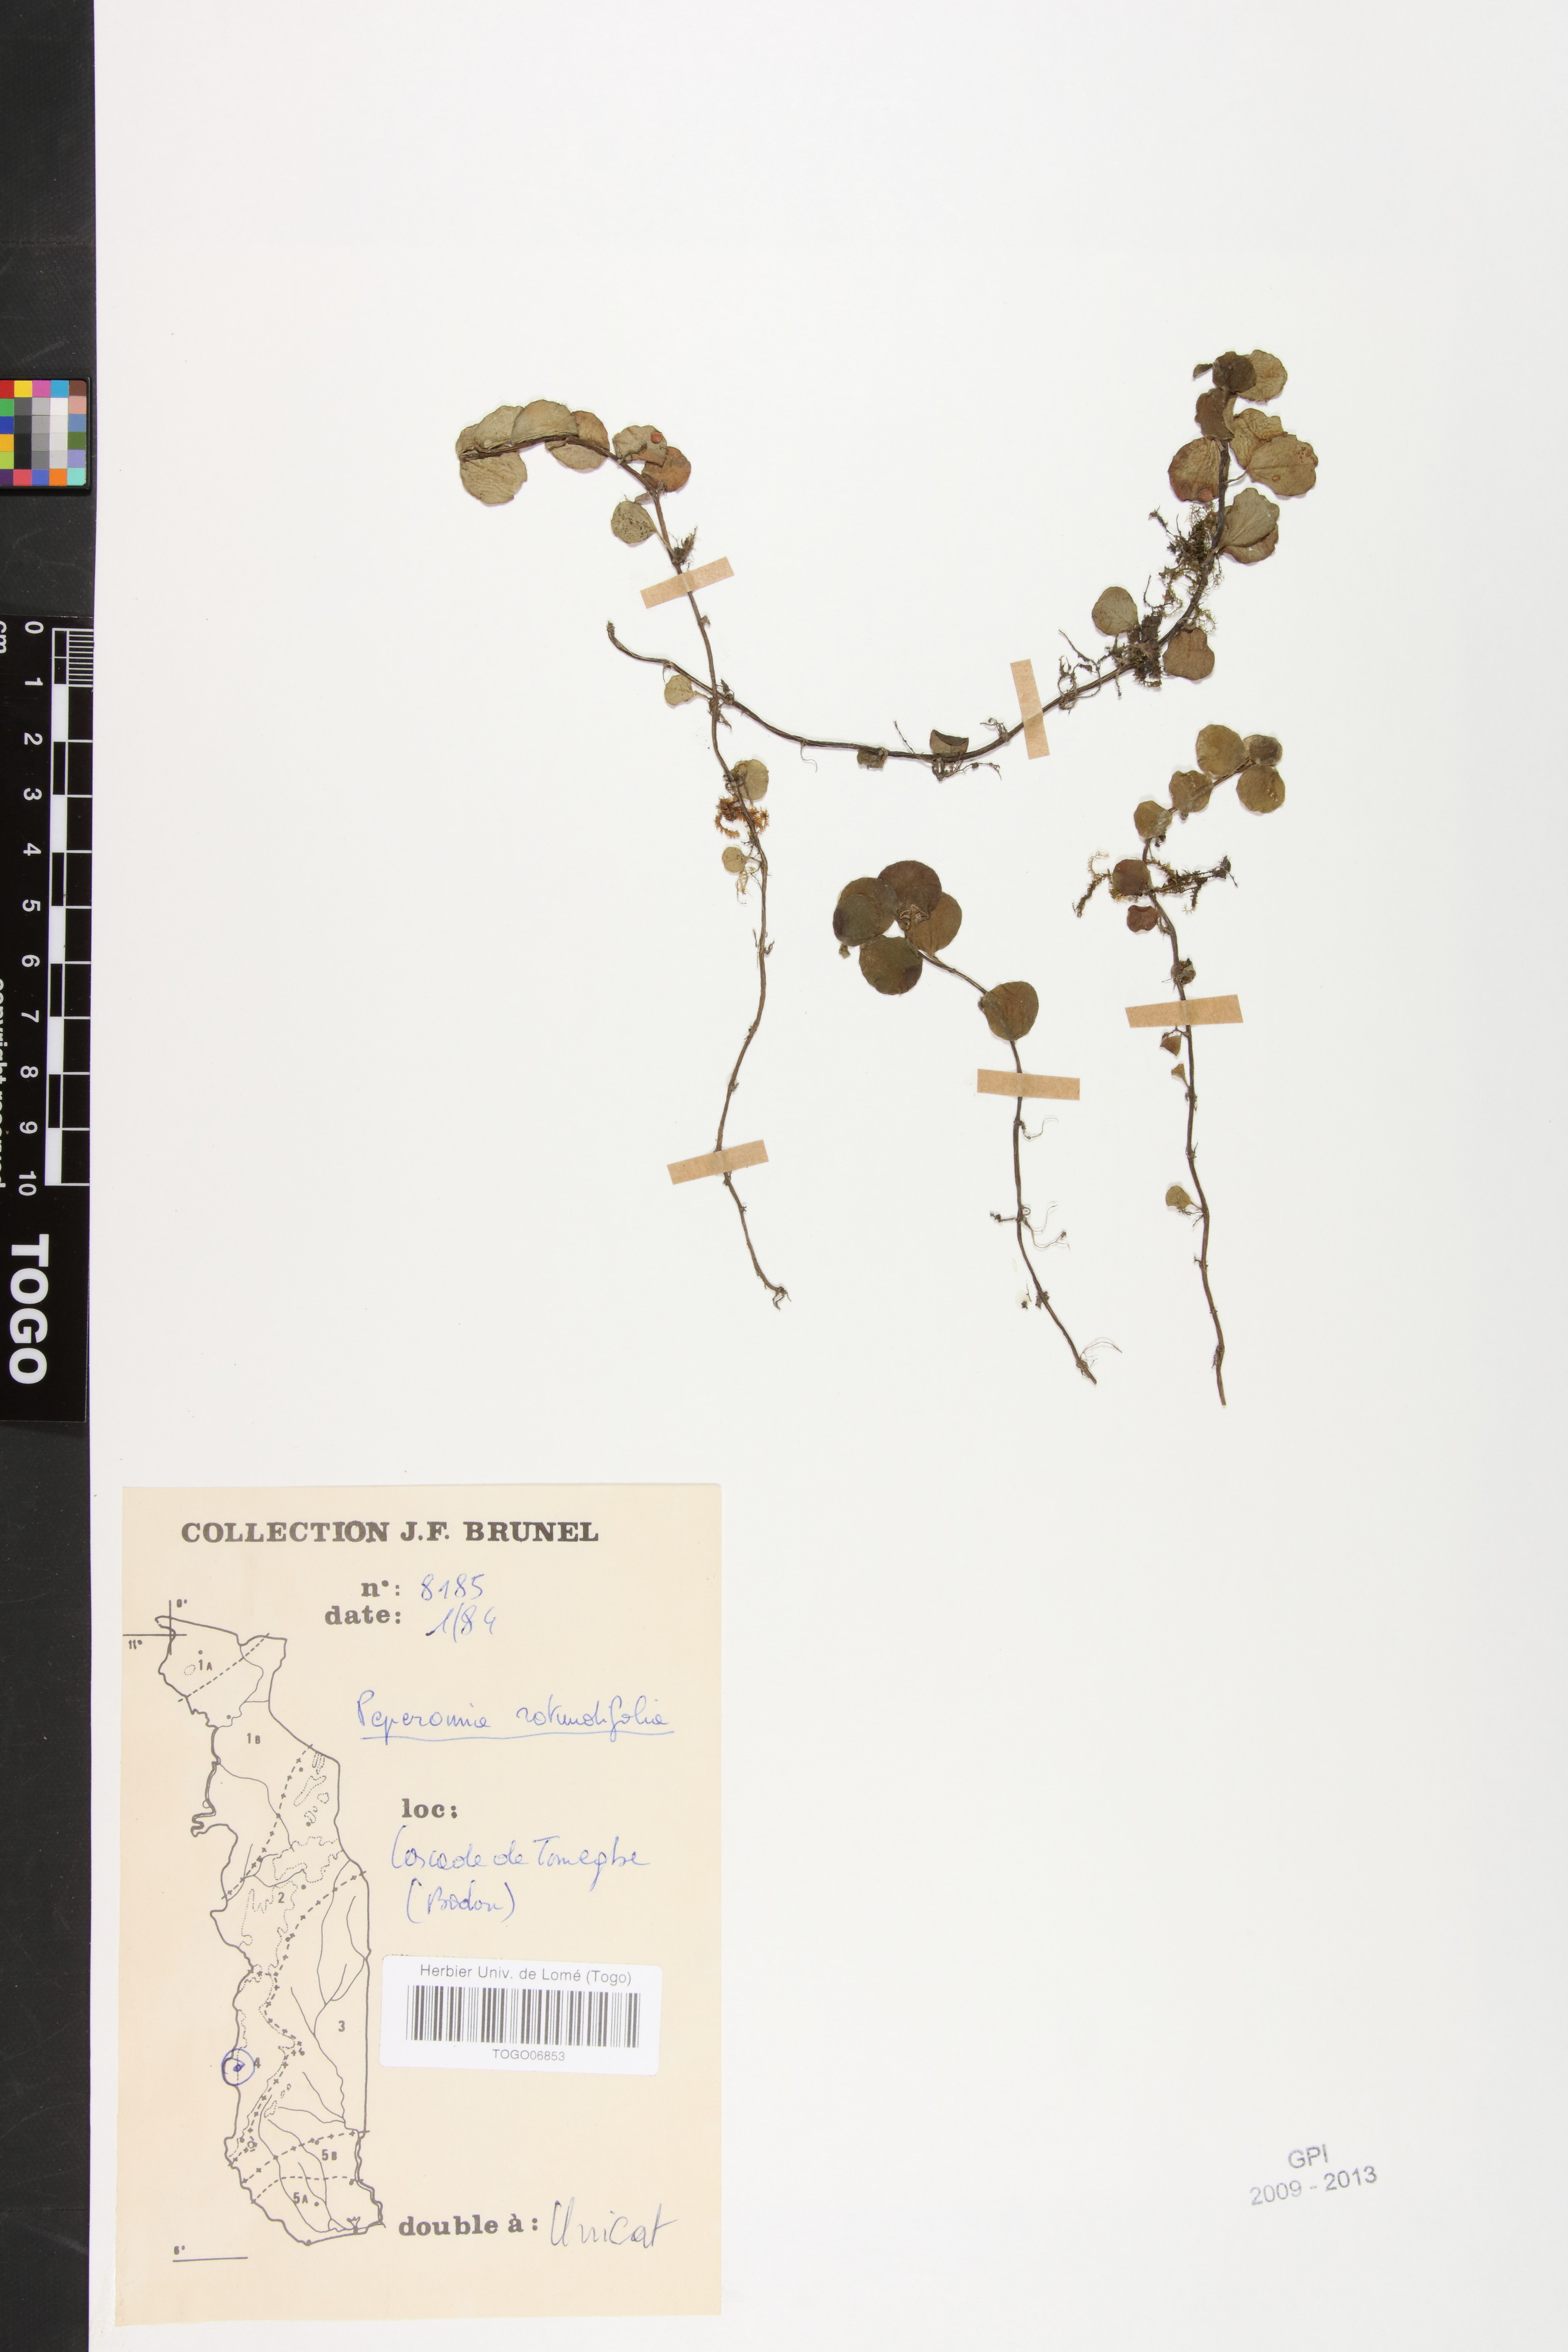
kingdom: Plantae
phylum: Tracheophyta
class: Magnoliopsida
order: Piperales
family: Piperaceae
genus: Peperomia
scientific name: Peperomia rotundifolia
